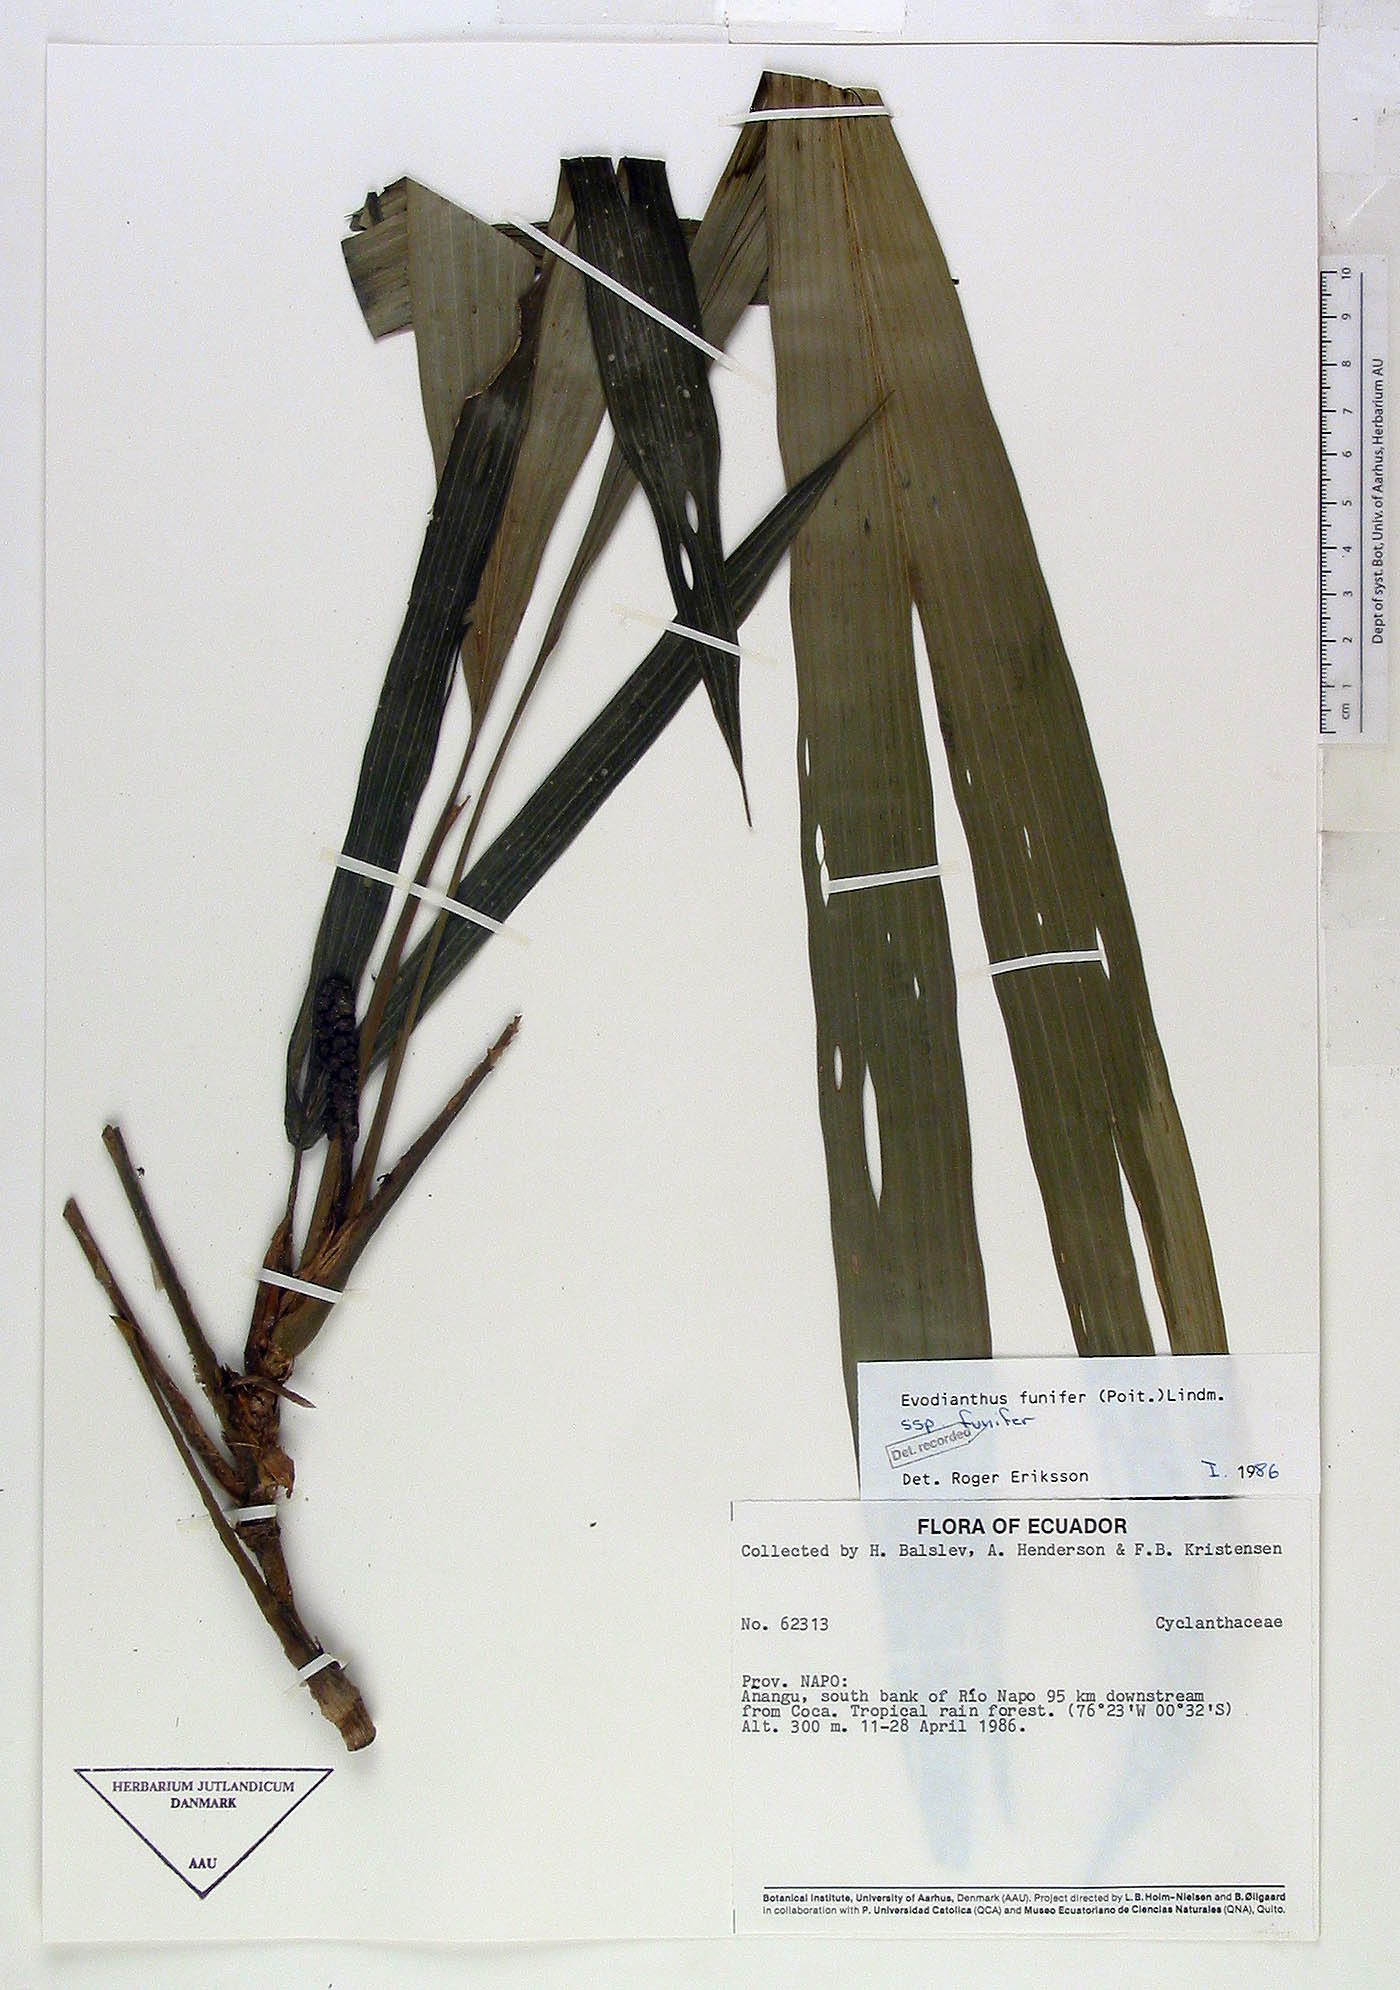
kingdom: Plantae
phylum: Tracheophyta
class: Liliopsida
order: Pandanales
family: Cyclanthaceae
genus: Evodianthus
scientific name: Evodianthus funifer
